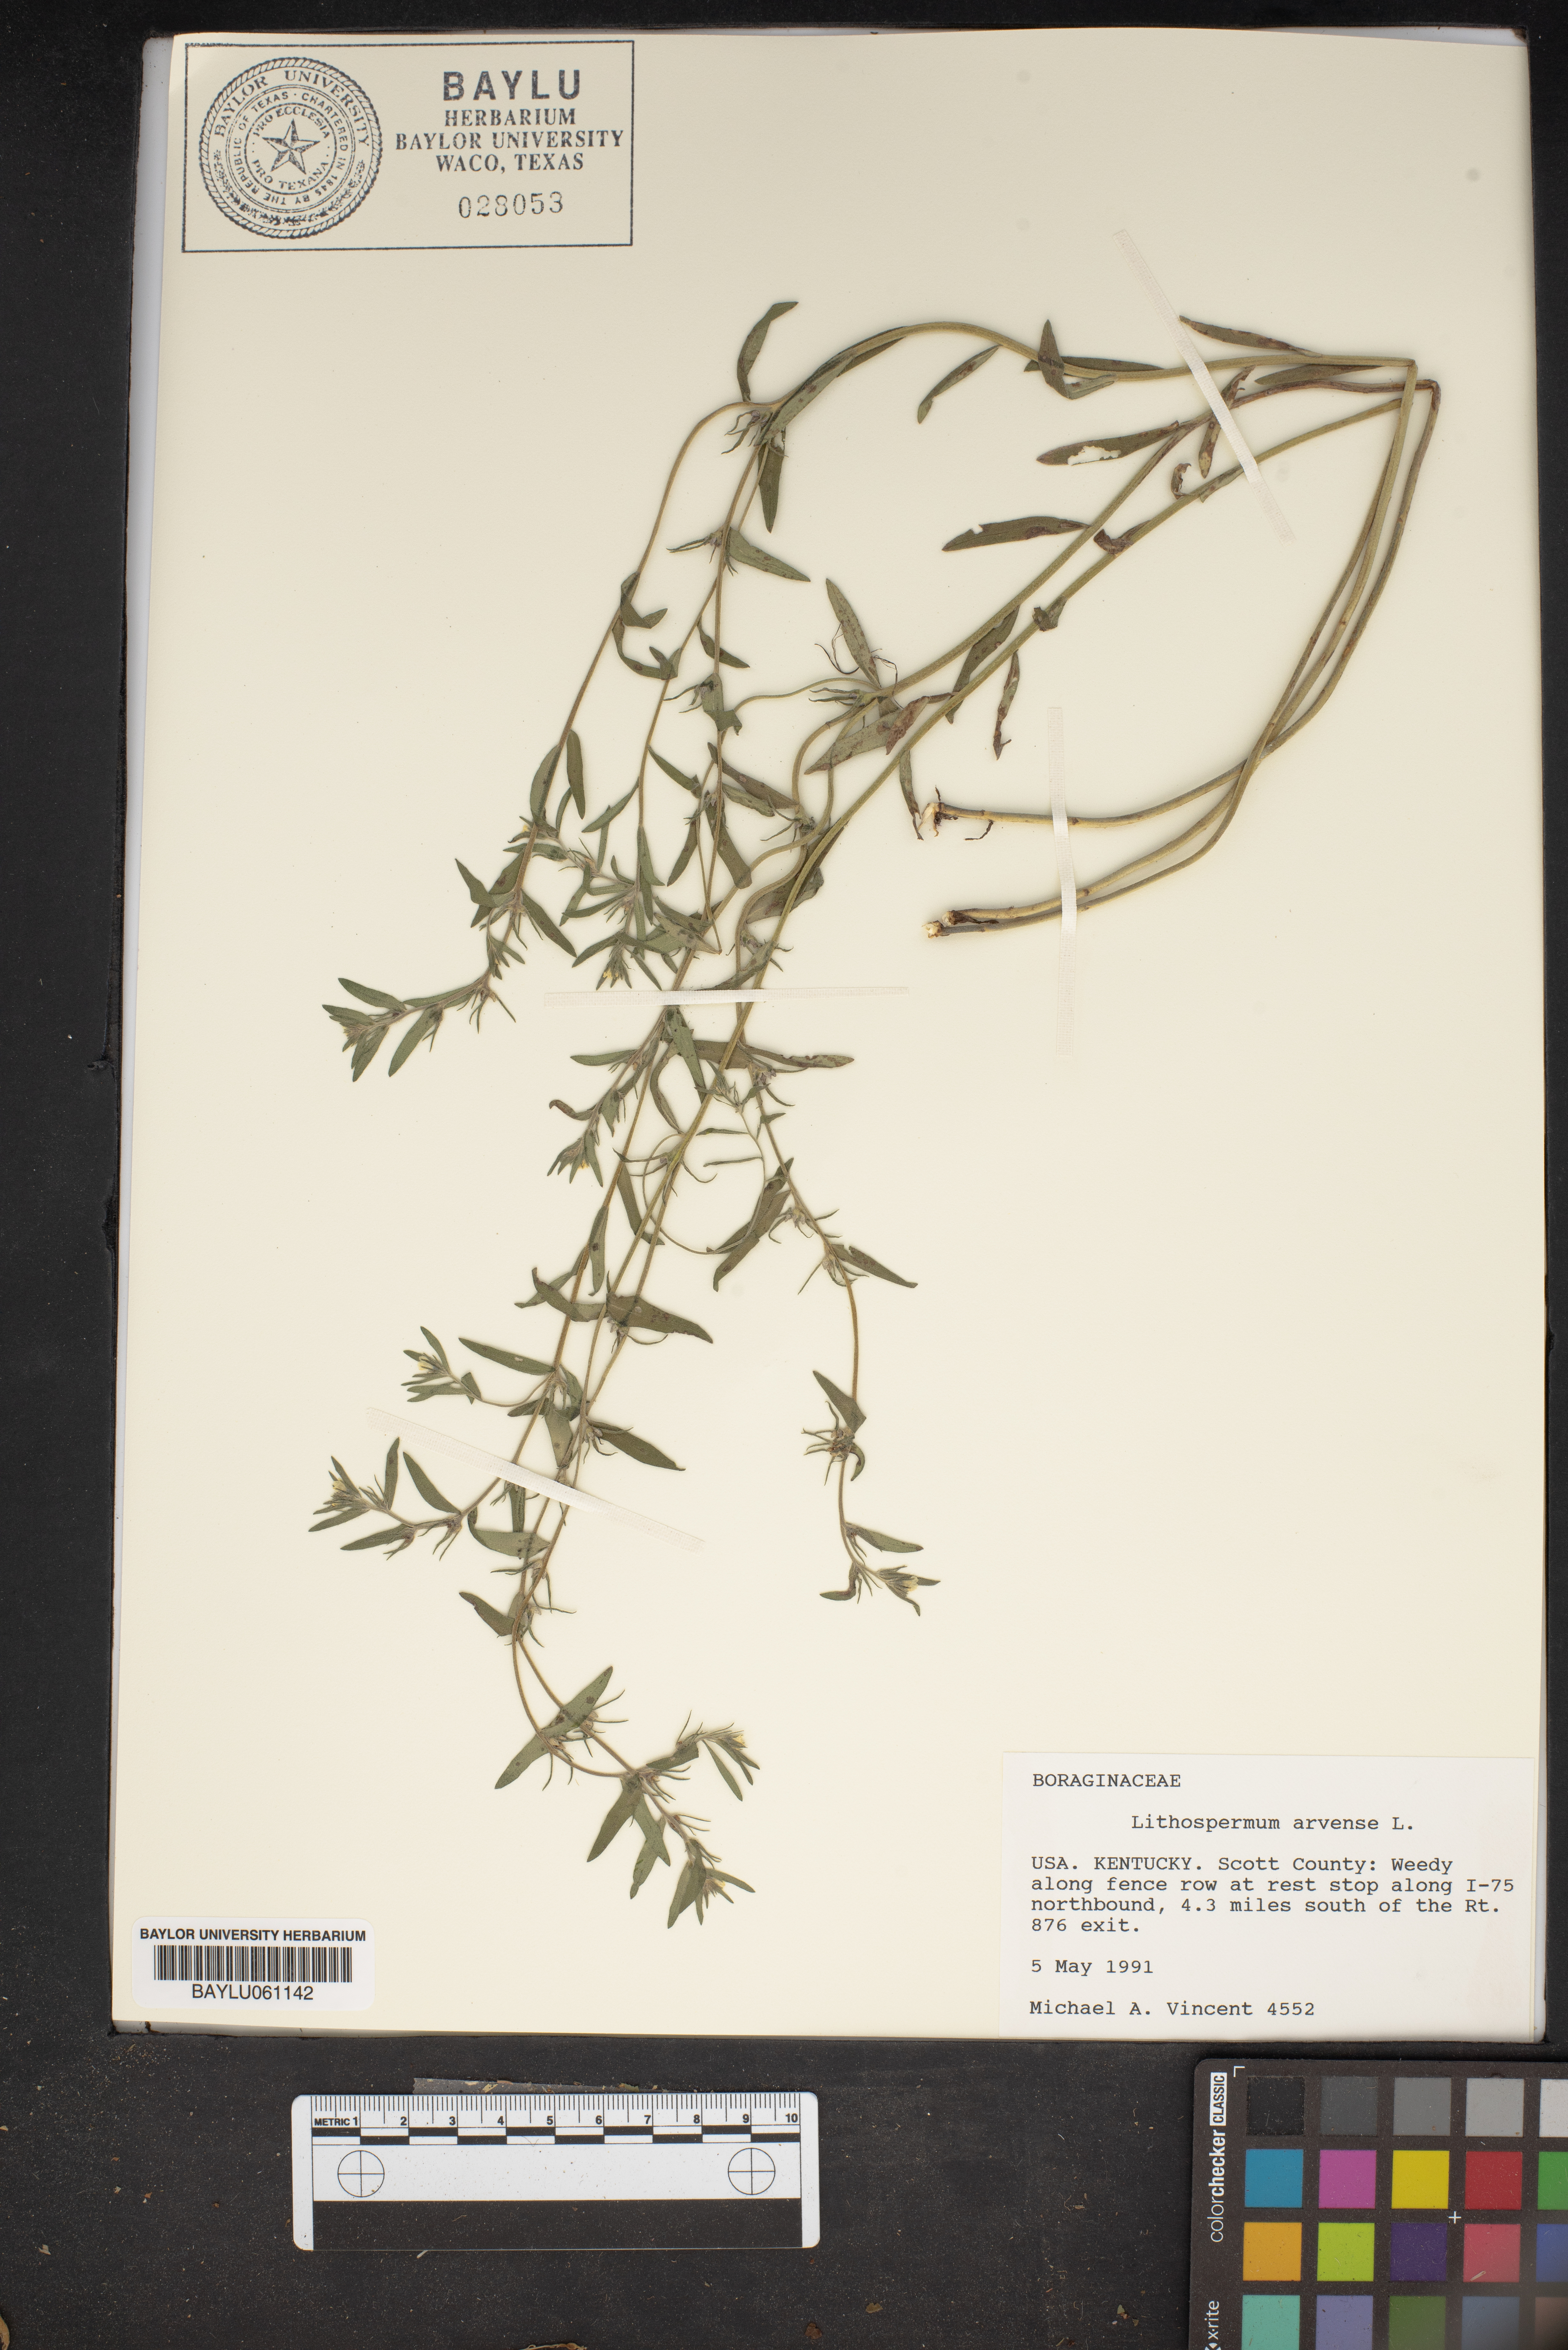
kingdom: Plantae
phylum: Tracheophyta
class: Magnoliopsida
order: Boraginales
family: Boraginaceae
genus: Lithospermum
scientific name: Lithospermum erythrorhizon
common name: Purple gromwell
